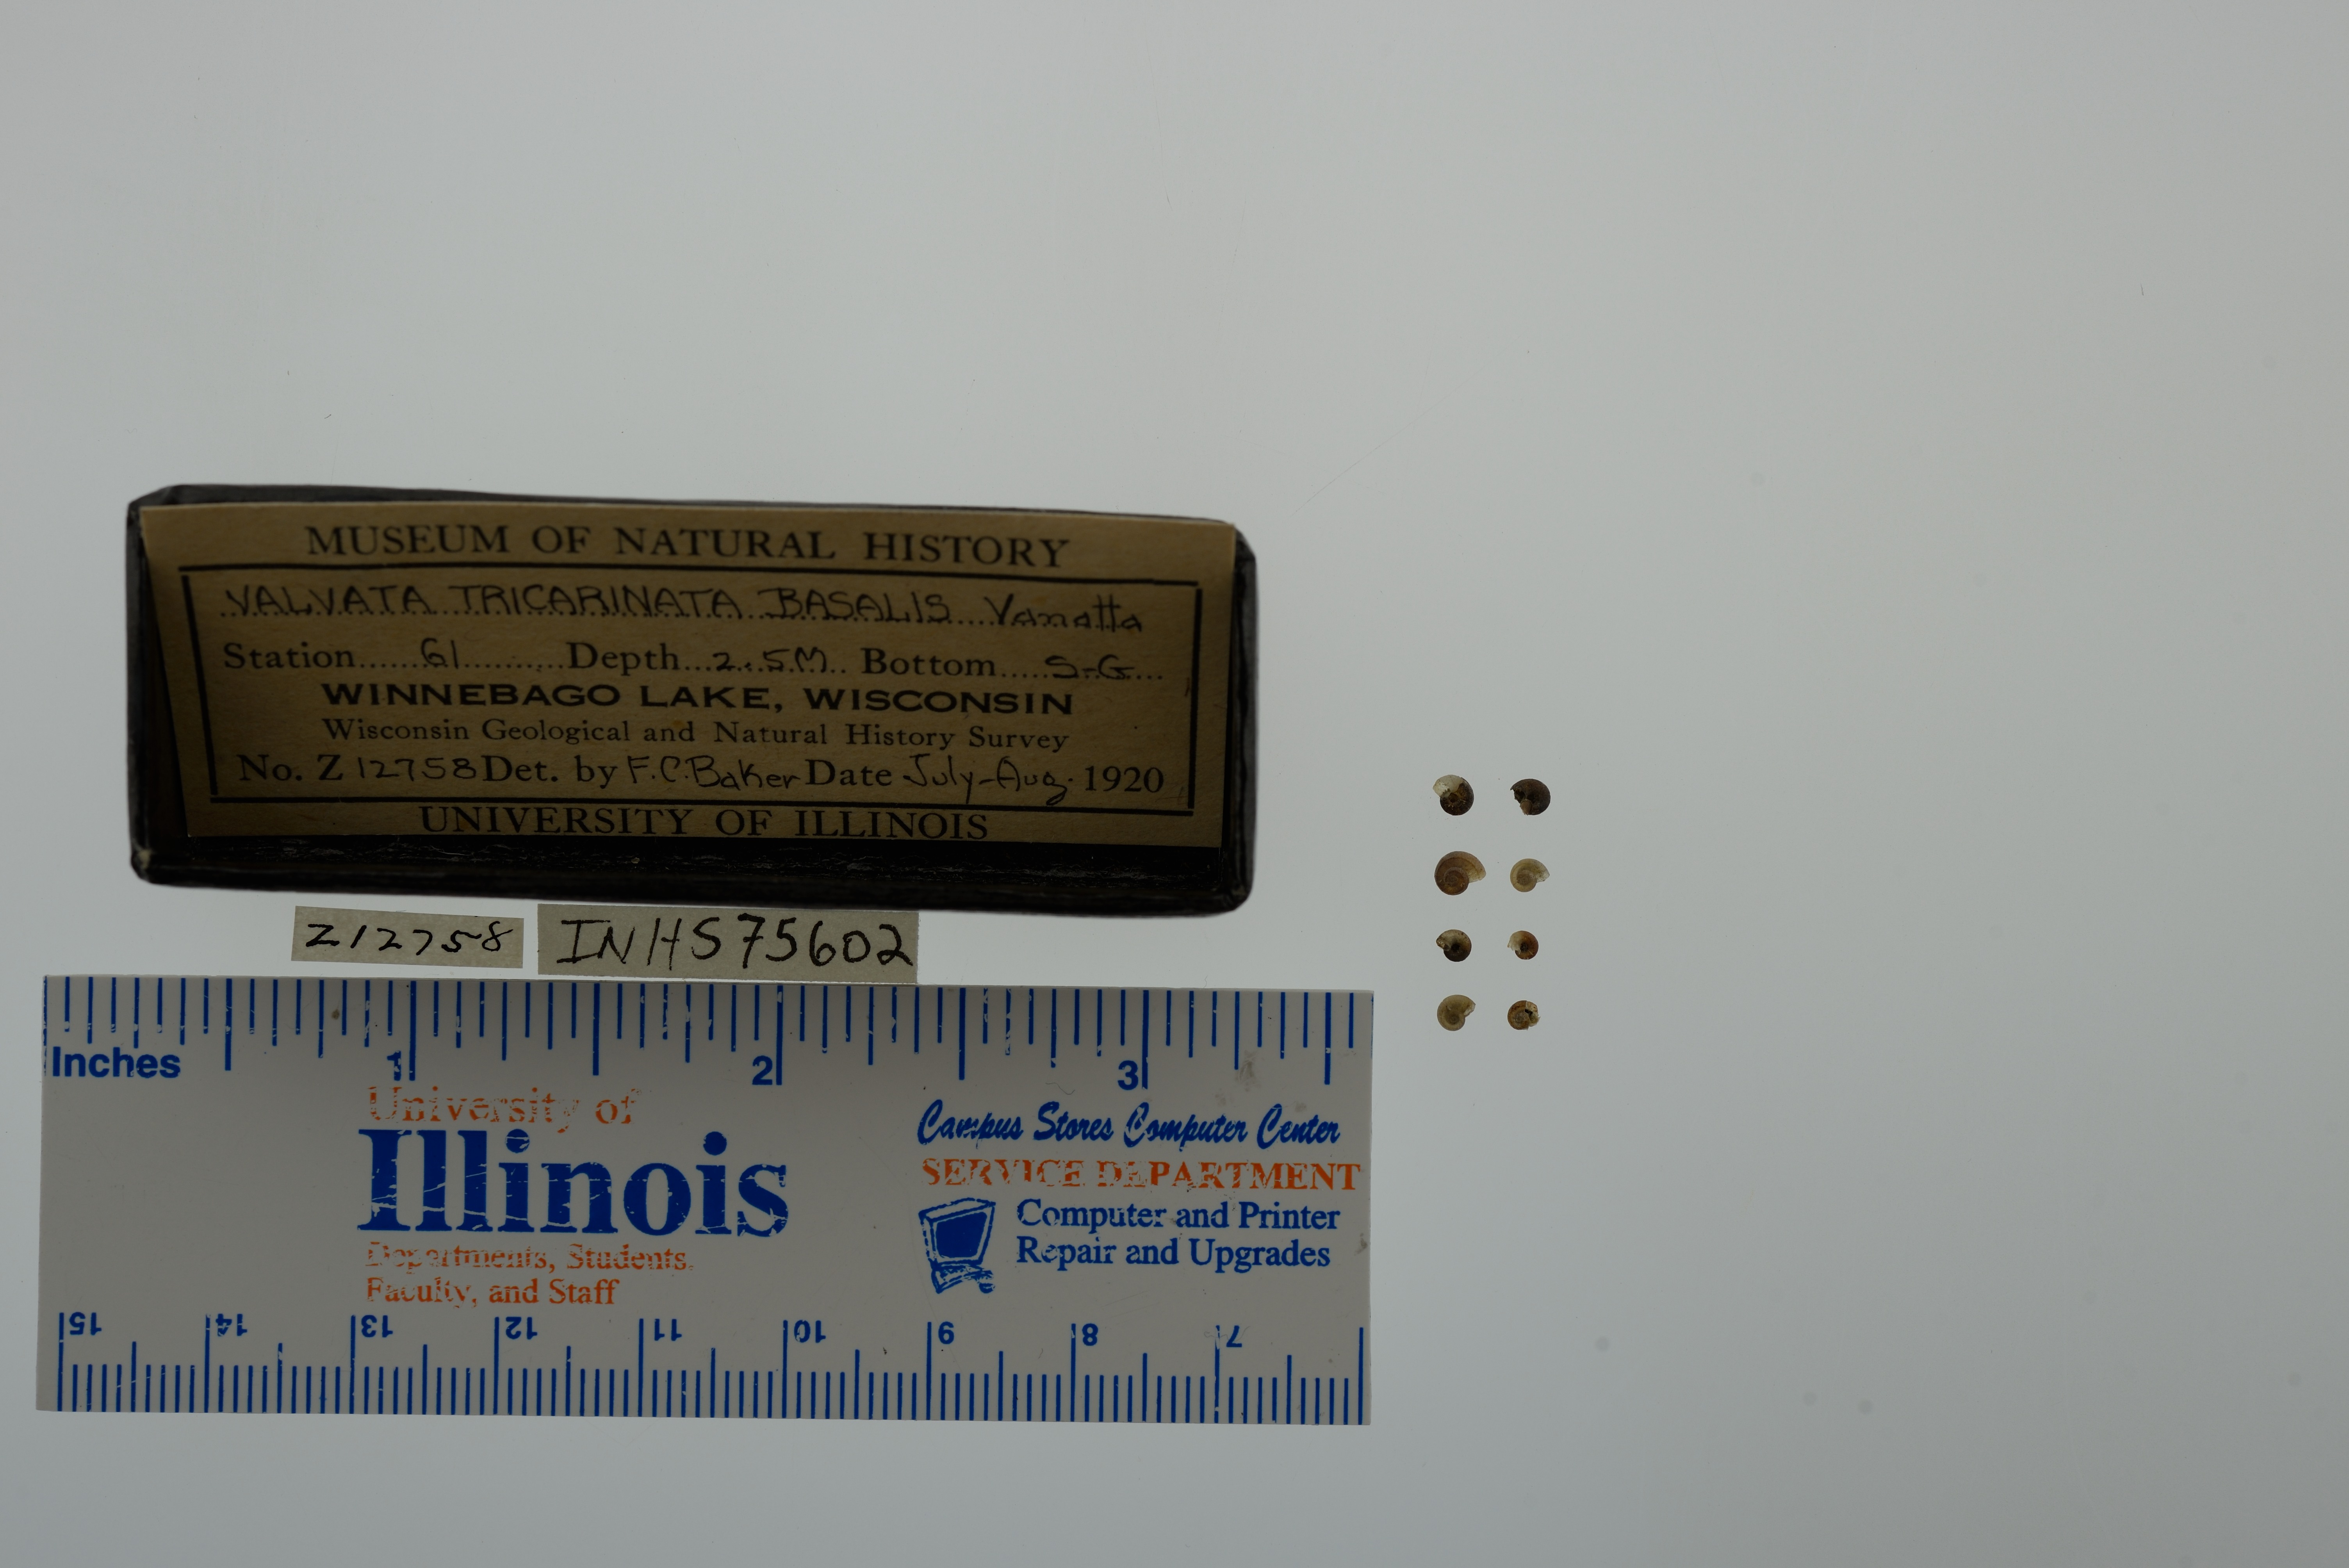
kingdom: Animalia
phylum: Mollusca
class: Gastropoda
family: Valvatidae
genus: Valvata
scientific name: Valvata tricarinata
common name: Three-ridge valvata
